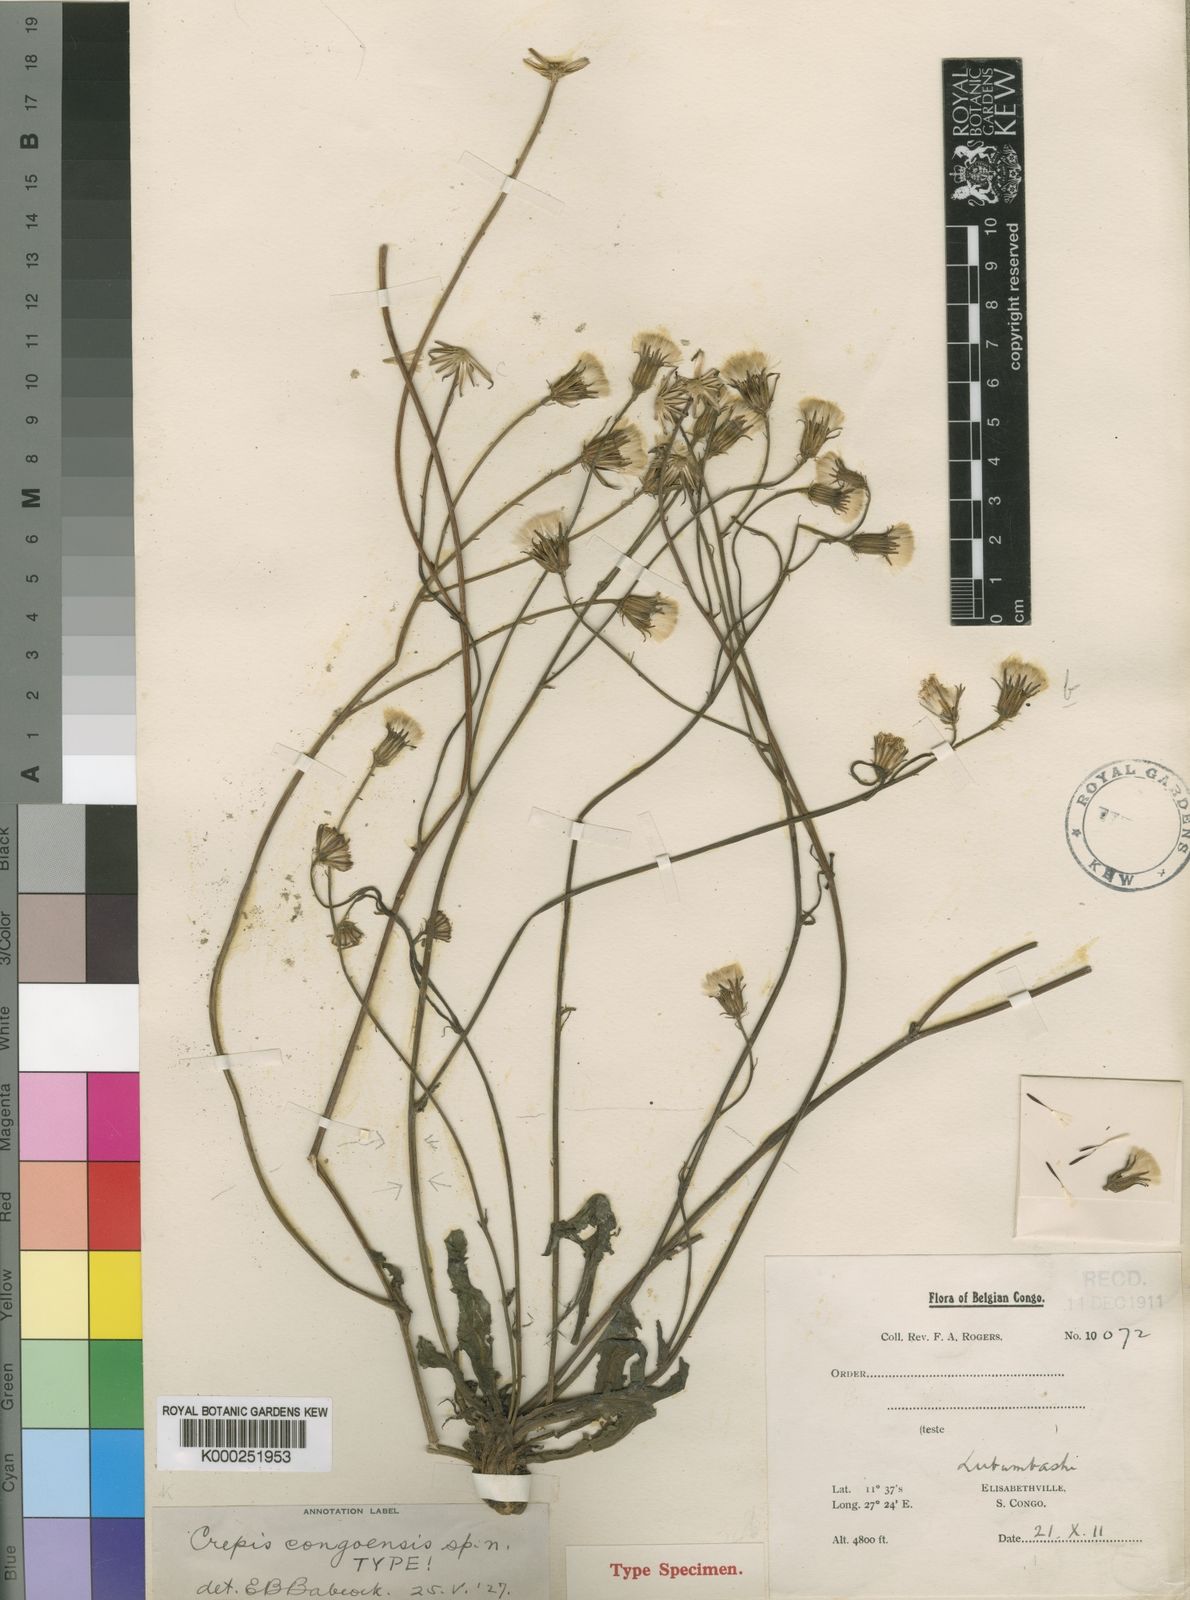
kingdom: Plantae
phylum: Tracheophyta
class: Magnoliopsida
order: Asterales
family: Asteraceae
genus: Crepis
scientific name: Crepis
